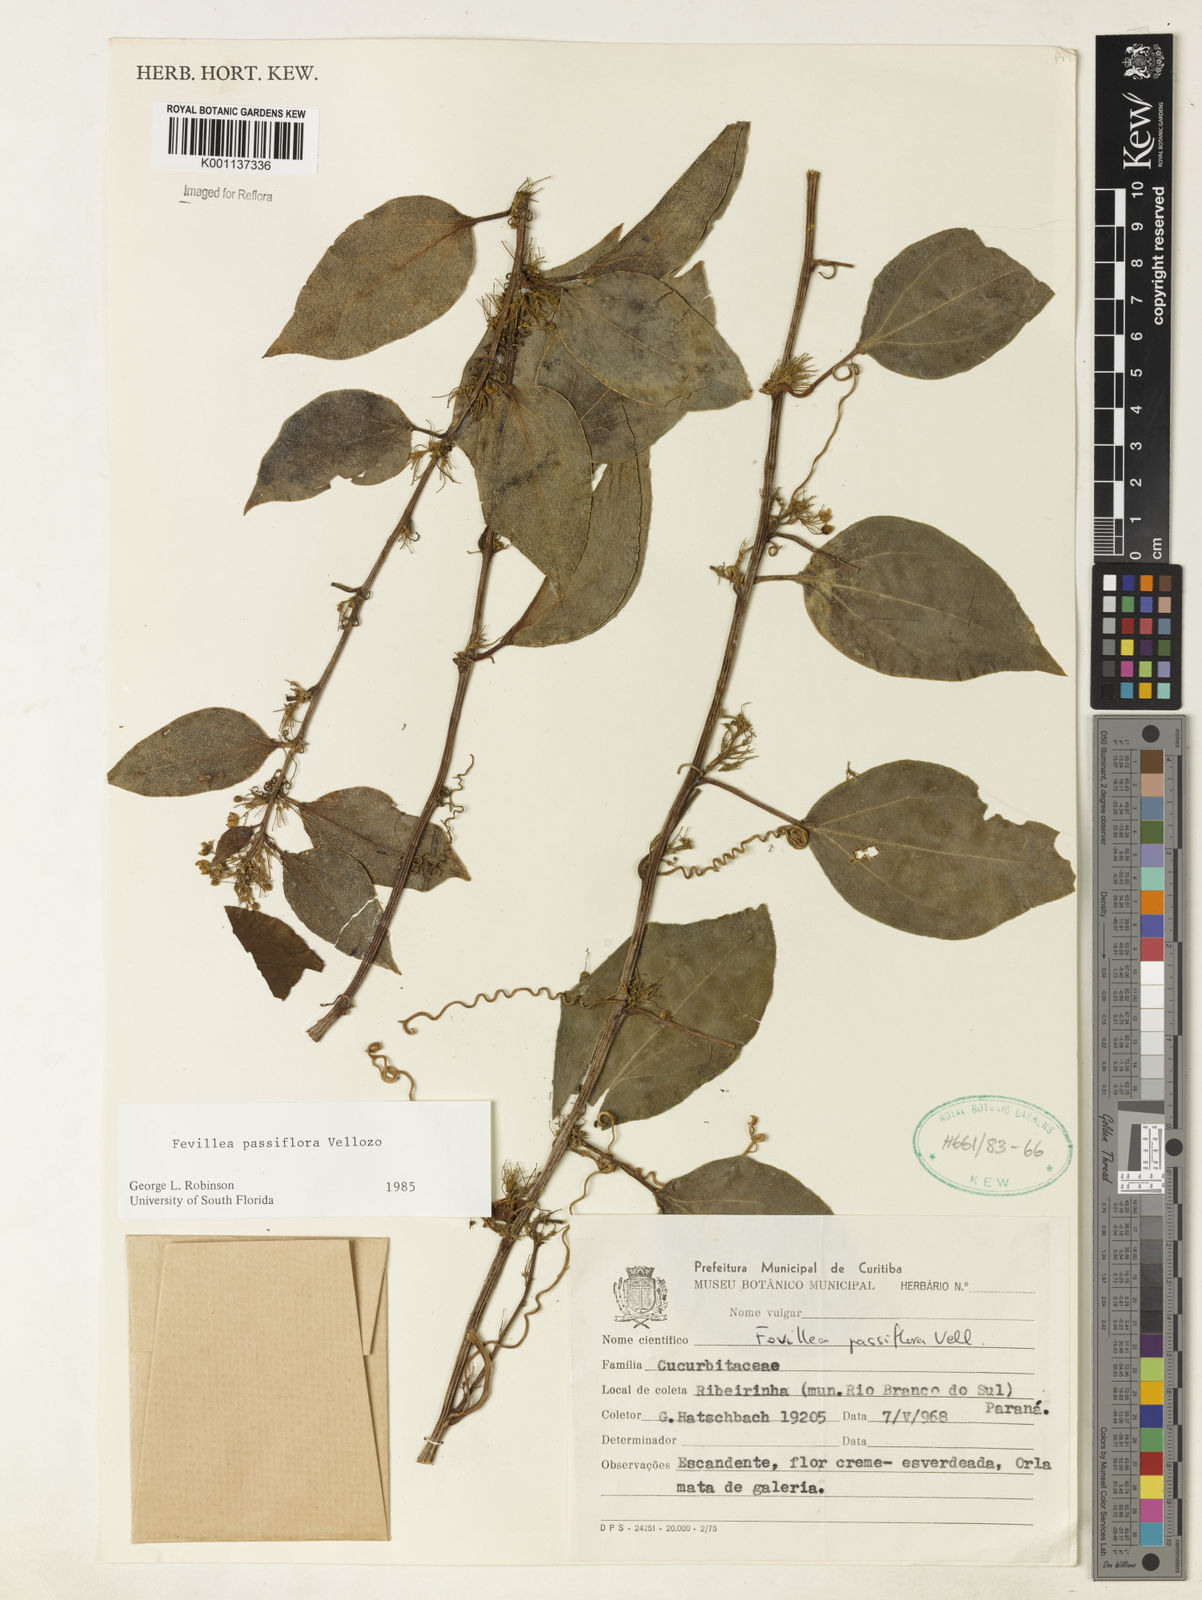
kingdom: Plantae
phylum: Tracheophyta
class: Magnoliopsida
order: Cucurbitales
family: Cucurbitaceae
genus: Anisosperma
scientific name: Anisosperma passiflora
